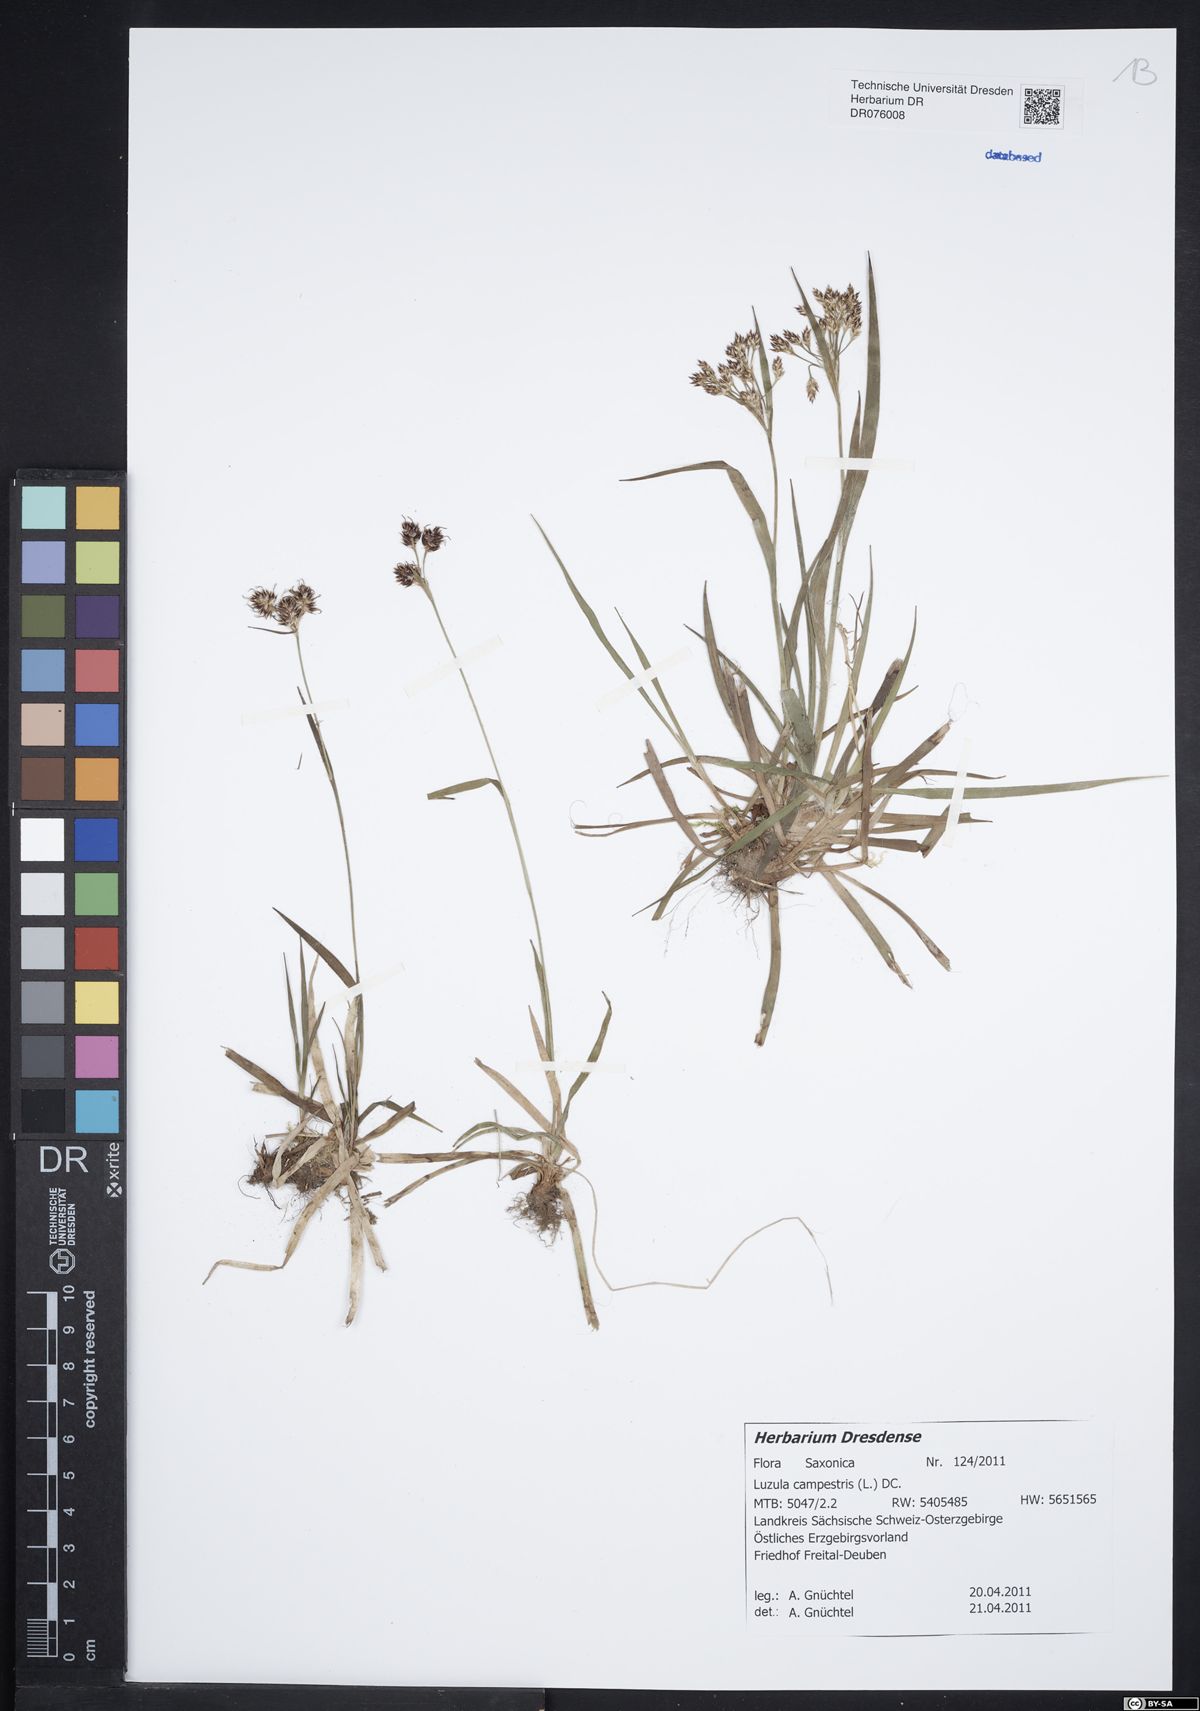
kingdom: Plantae
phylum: Tracheophyta
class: Liliopsida
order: Poales
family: Juncaceae
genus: Luzula
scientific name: Luzula campestris
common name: Field wood-rush
